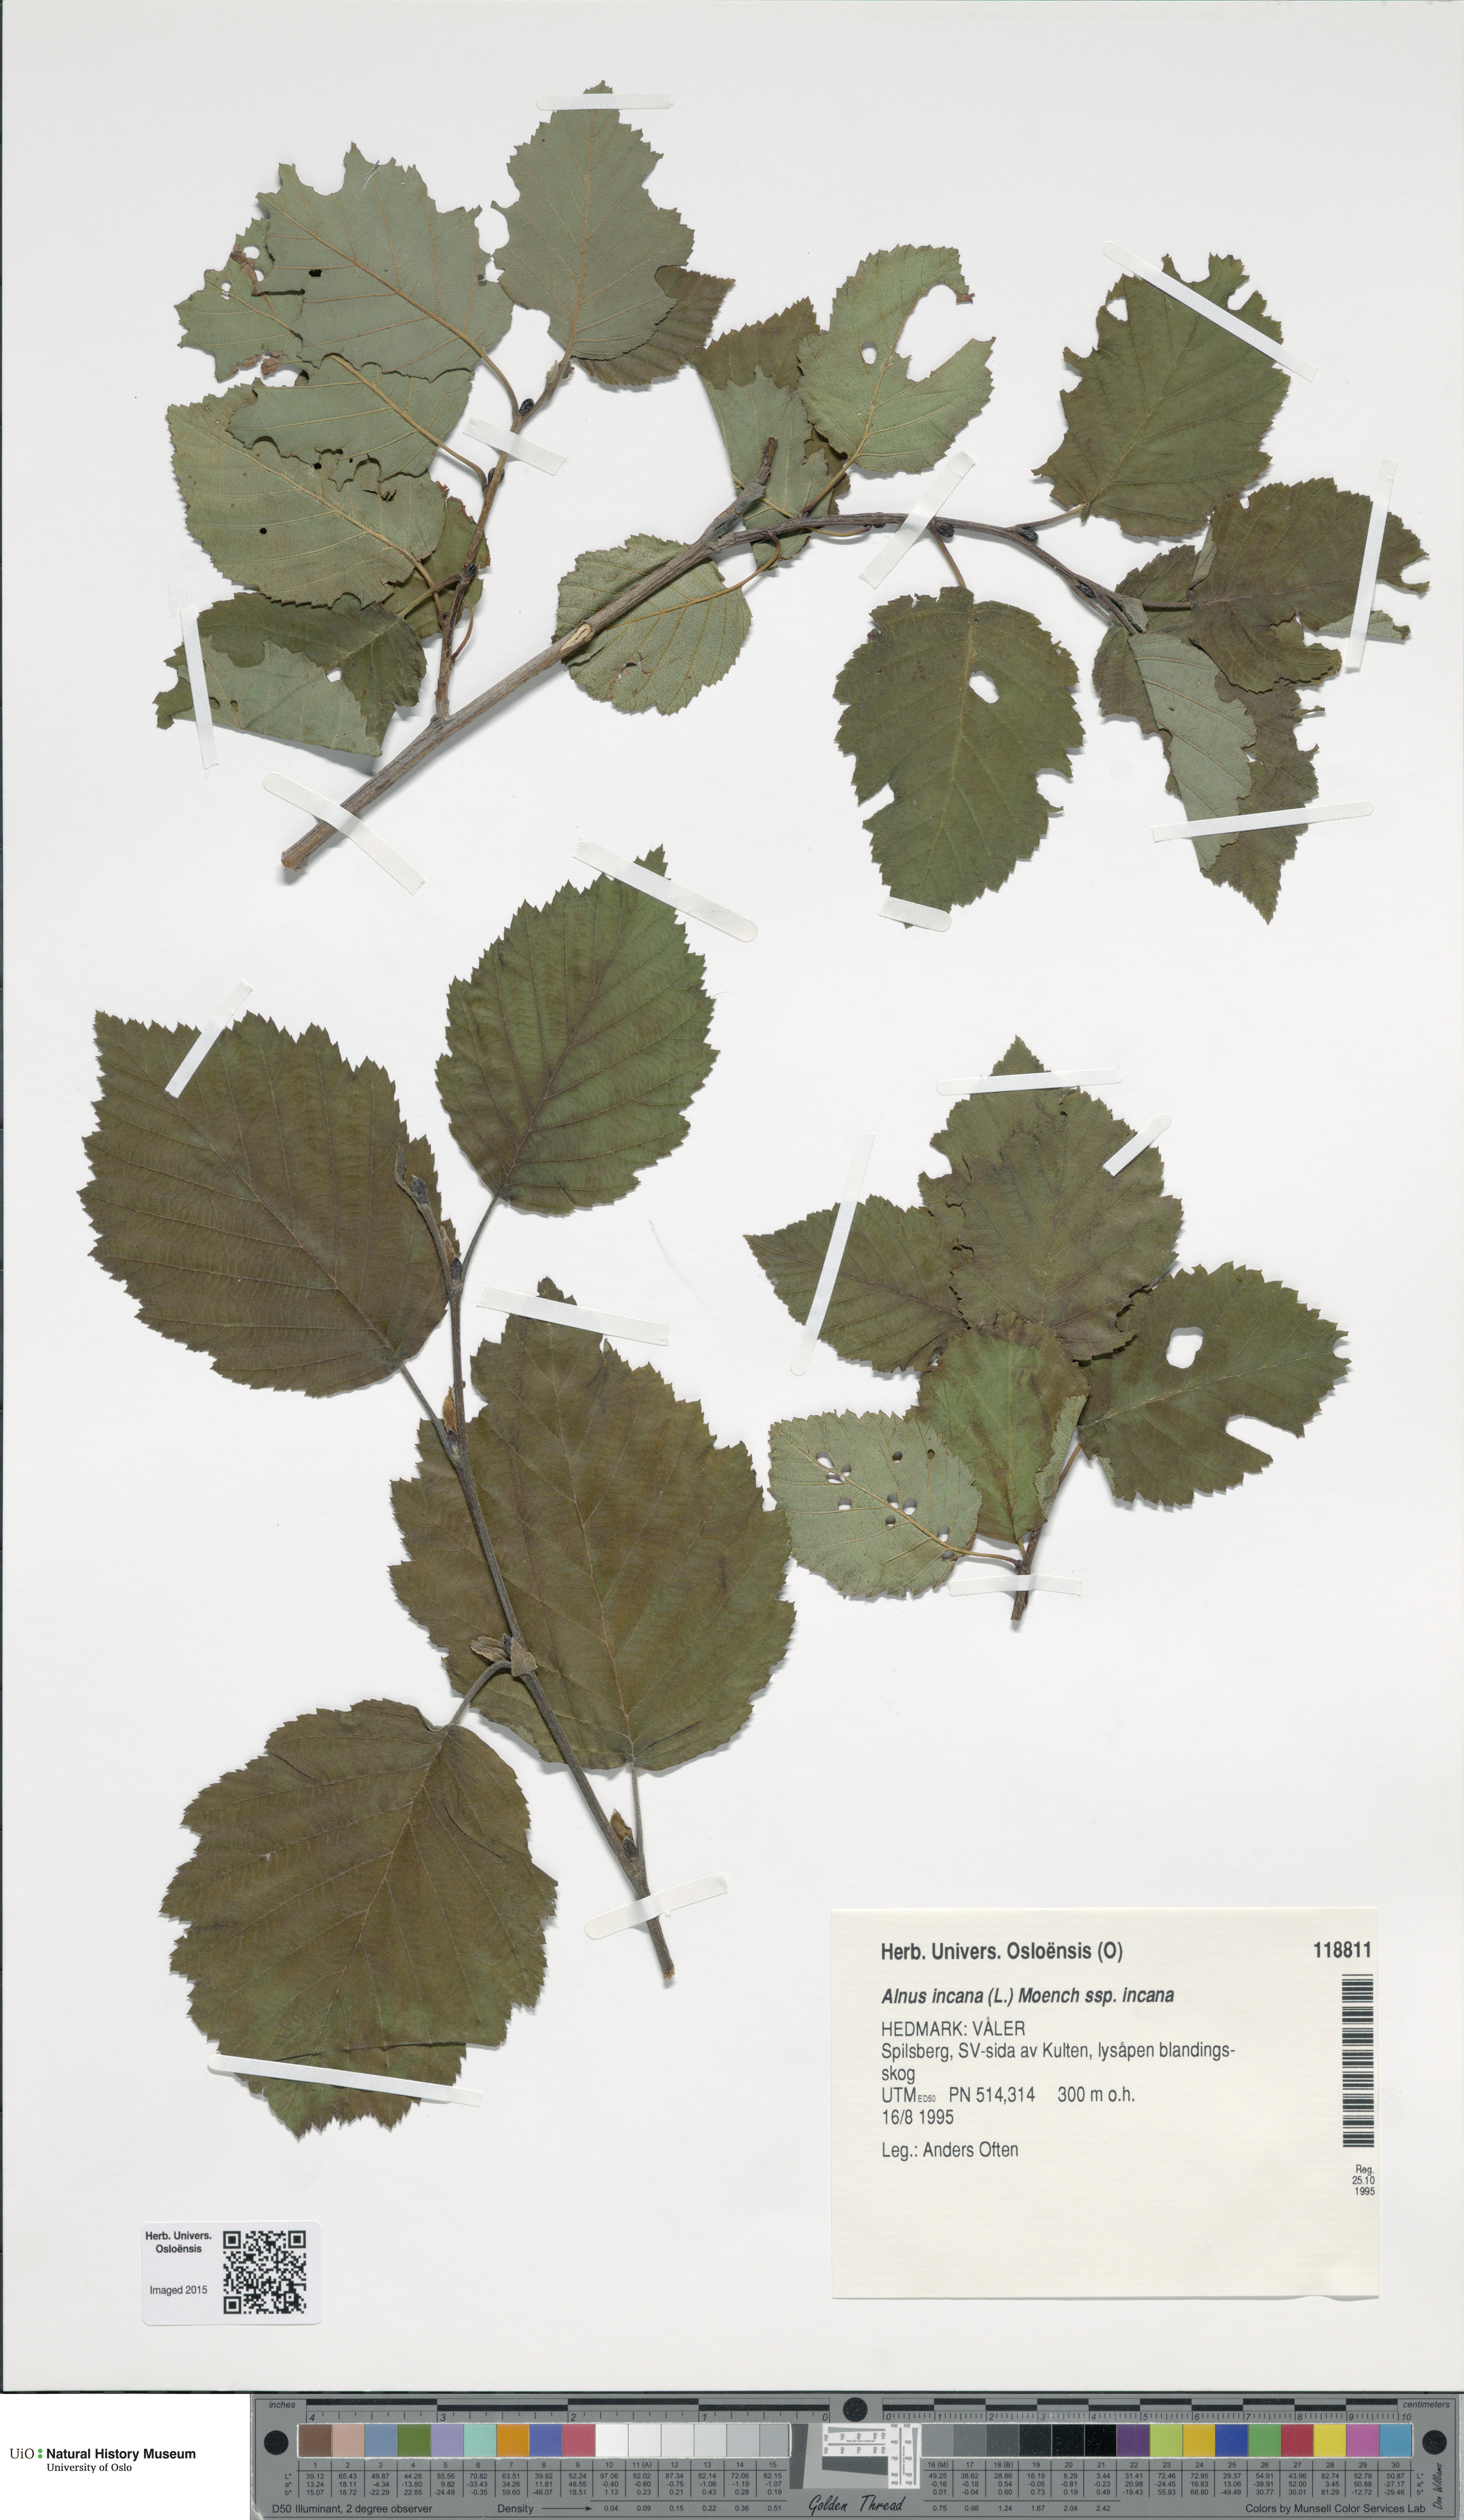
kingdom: Plantae
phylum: Tracheophyta
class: Magnoliopsida
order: Fagales
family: Betulaceae
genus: Alnus
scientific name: Alnus incana
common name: Grey alder
